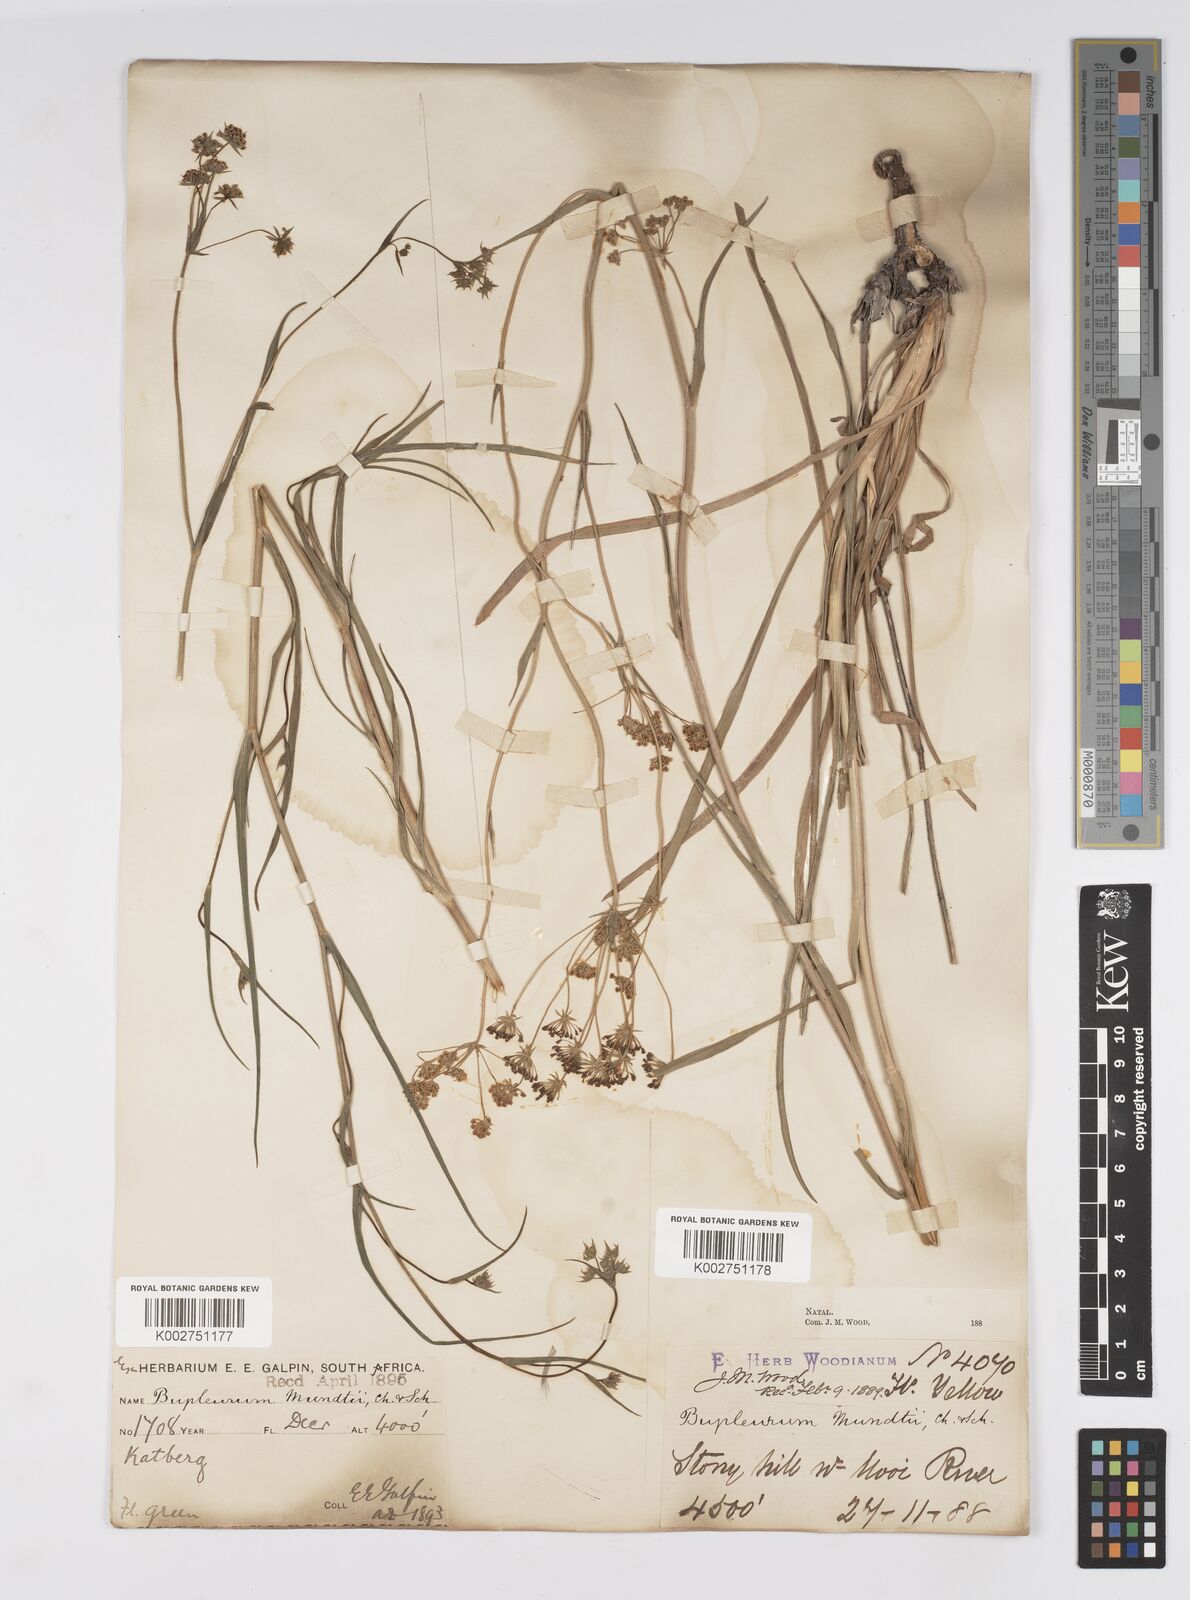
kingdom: Plantae
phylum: Tracheophyta
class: Magnoliopsida
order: Apiales
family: Apiaceae
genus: Bupleurum
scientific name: Bupleurum mundii
